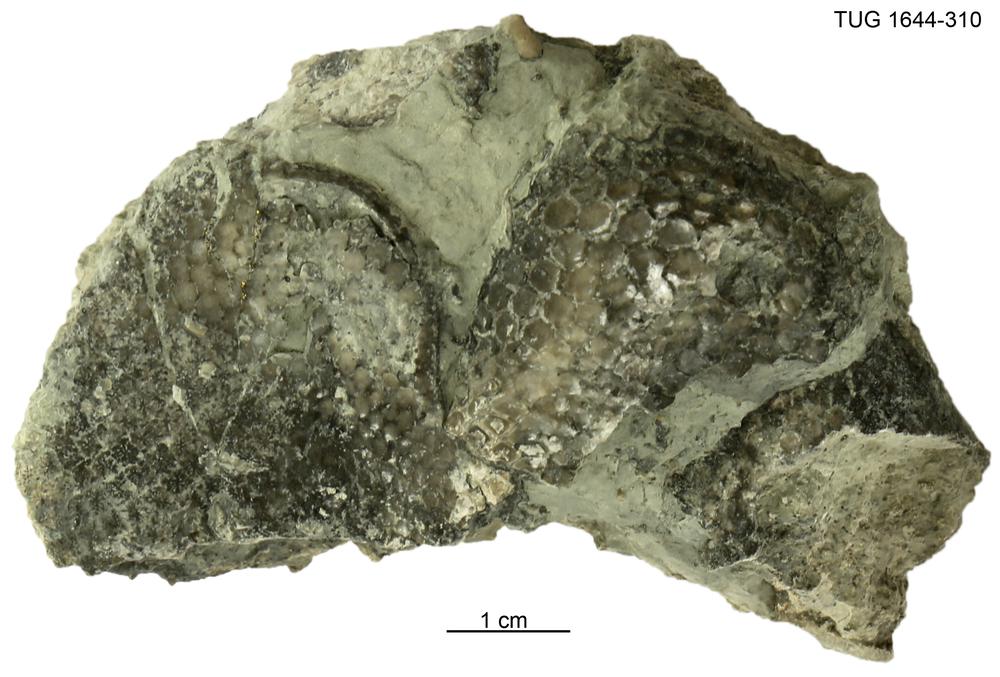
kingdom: Plantae
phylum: Chlorophyta
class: Chlorophyceae
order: Receptaculitales
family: Receptaculitaceae
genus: Receptaculites
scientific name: Receptaculites
